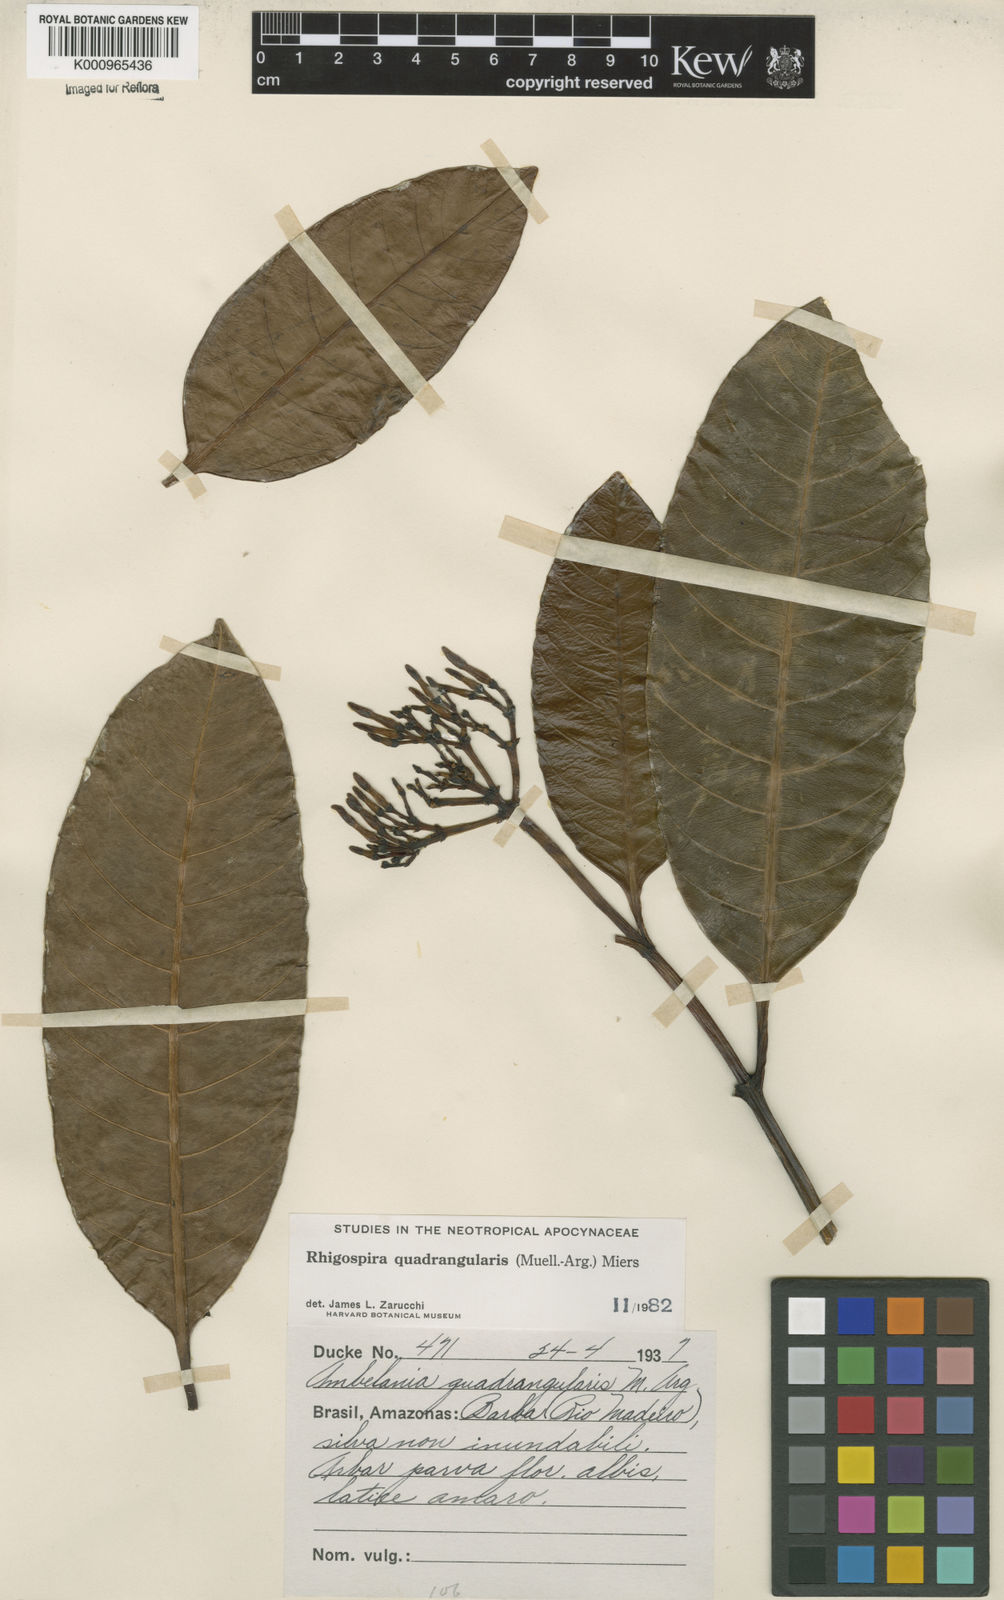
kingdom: Plantae
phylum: Tracheophyta
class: Magnoliopsida
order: Gentianales
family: Apocynaceae
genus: Rhigospira
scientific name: Rhigospira quadrangularis
